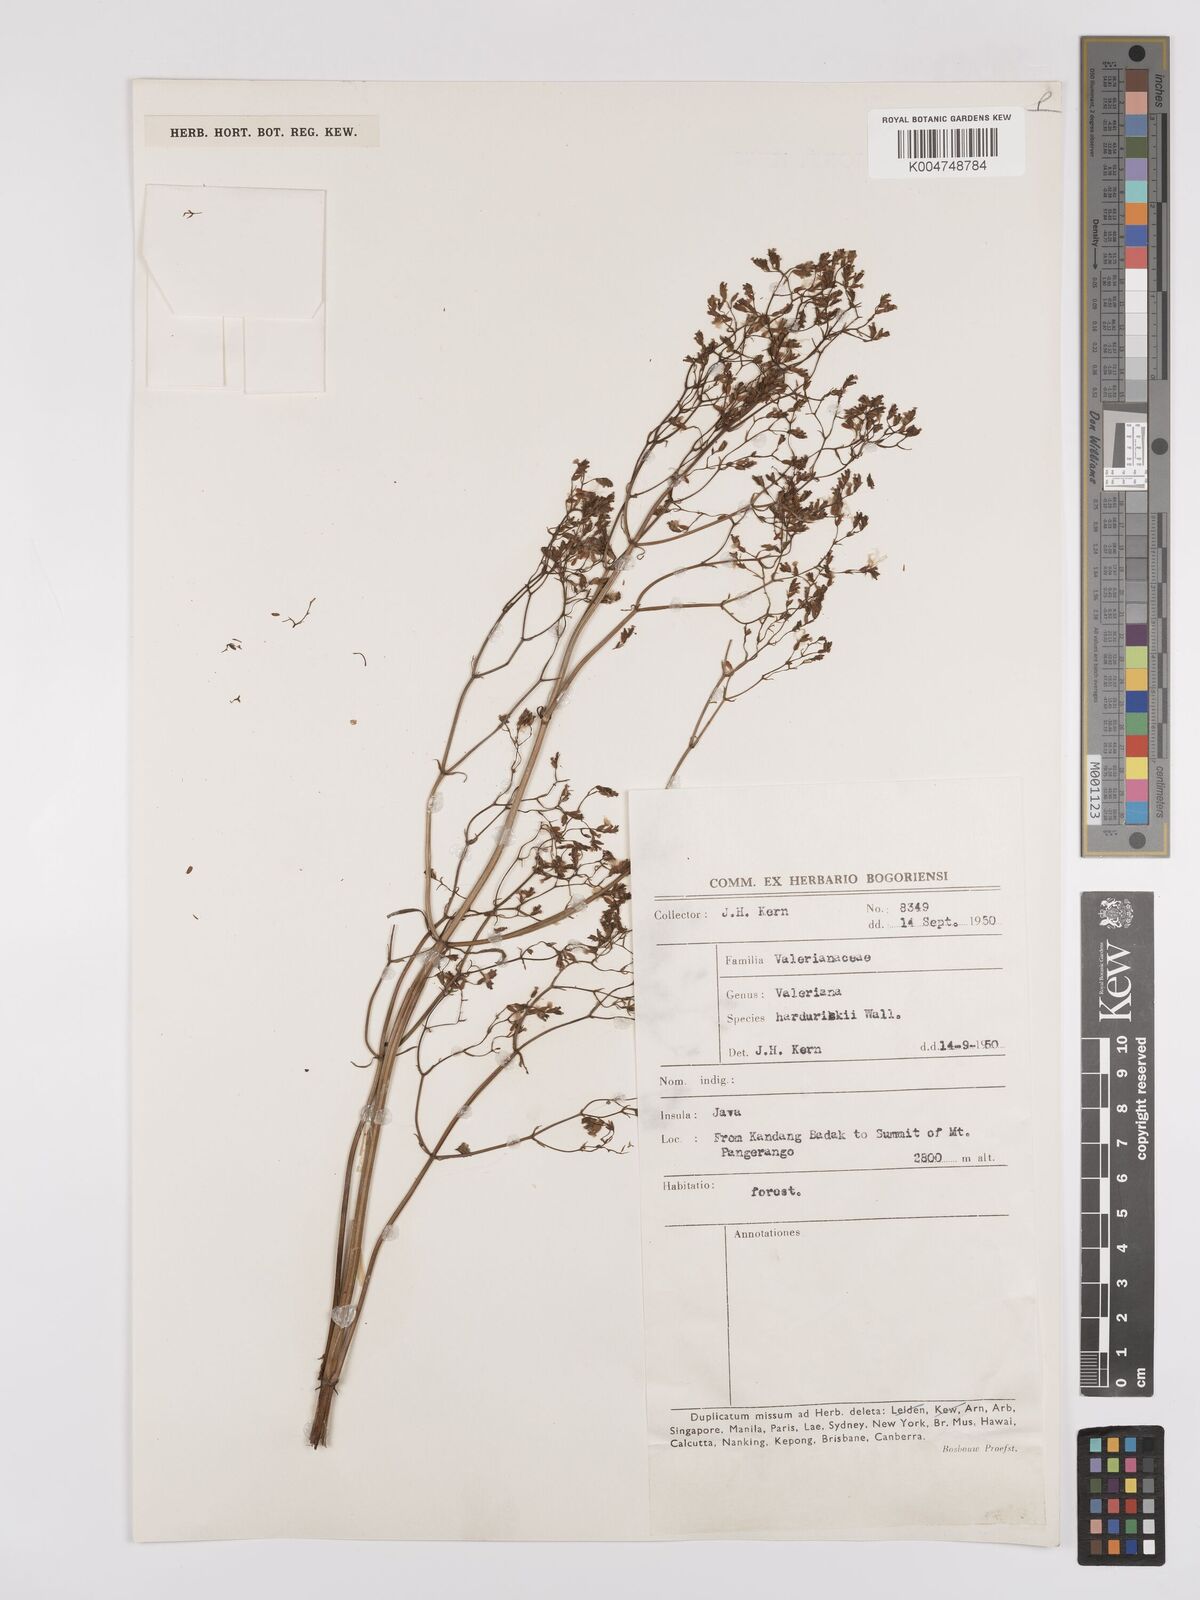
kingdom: Plantae
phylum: Tracheophyta
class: Magnoliopsida
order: Dipsacales
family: Caprifoliaceae
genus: Valeriana
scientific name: Valeriana hardwickei
